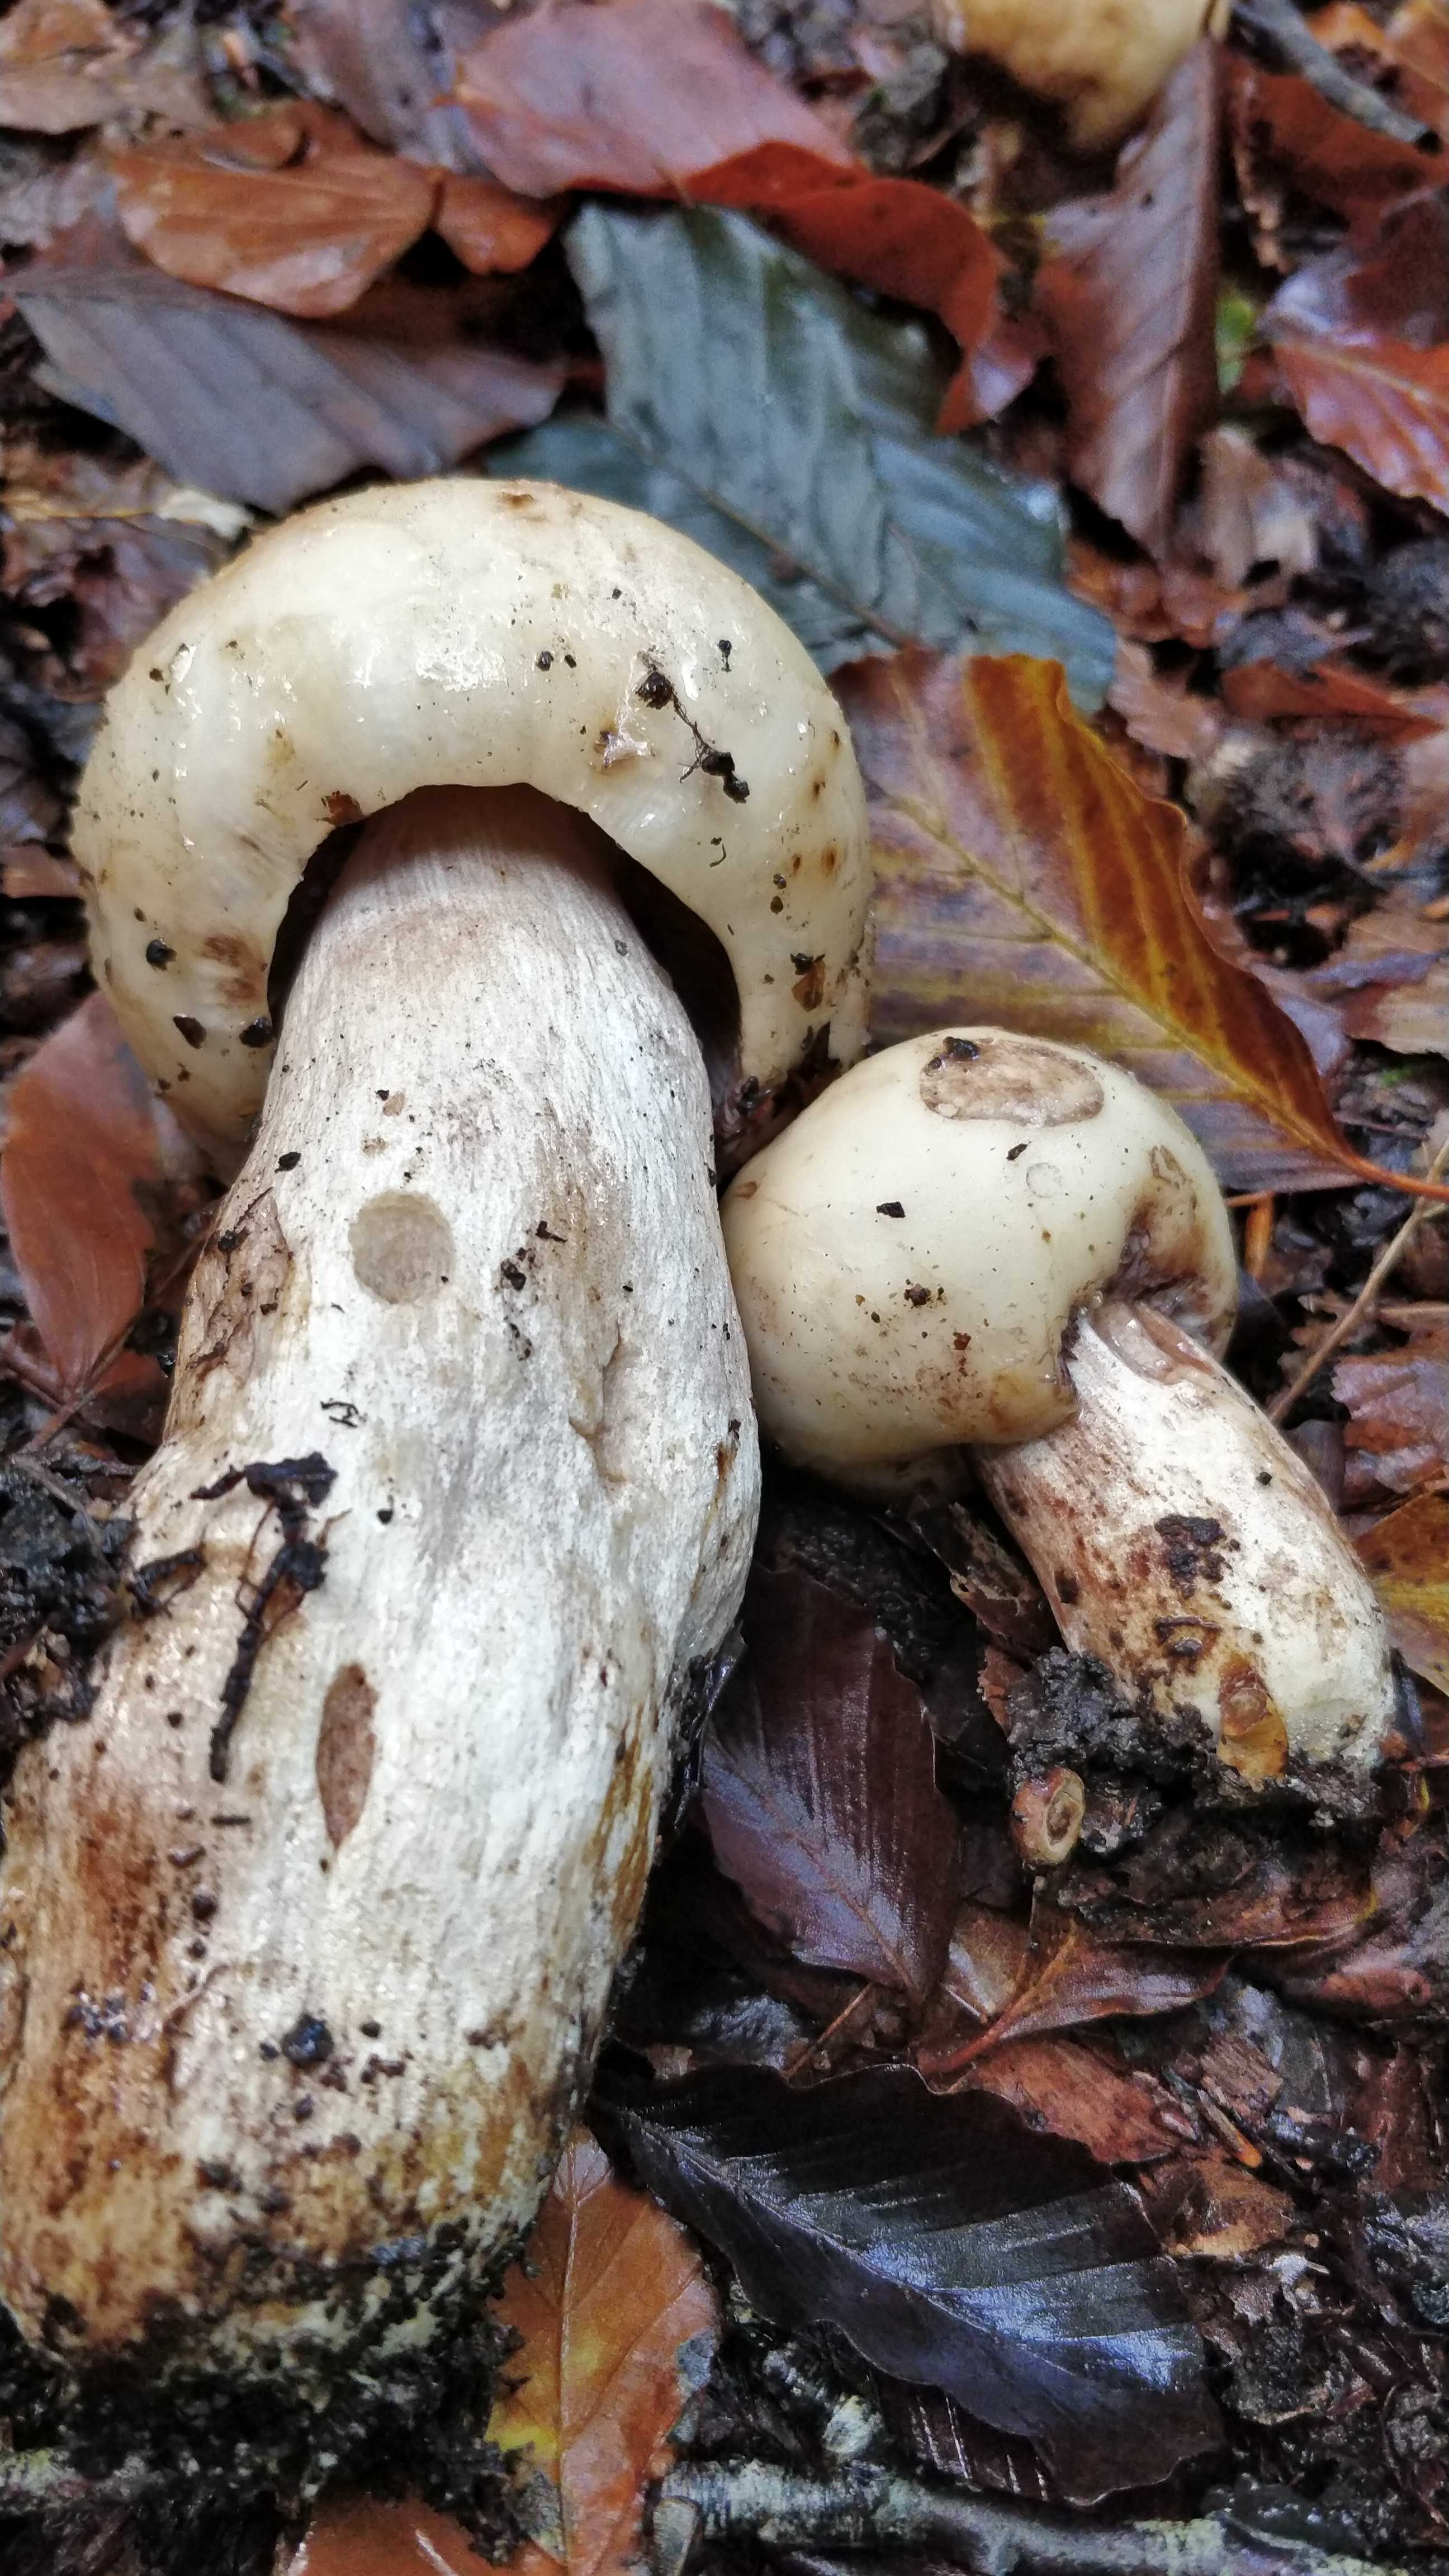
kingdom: Fungi
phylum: Basidiomycota
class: Agaricomycetes
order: Russulales
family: Russulaceae
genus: Russula
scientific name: Russula illota
